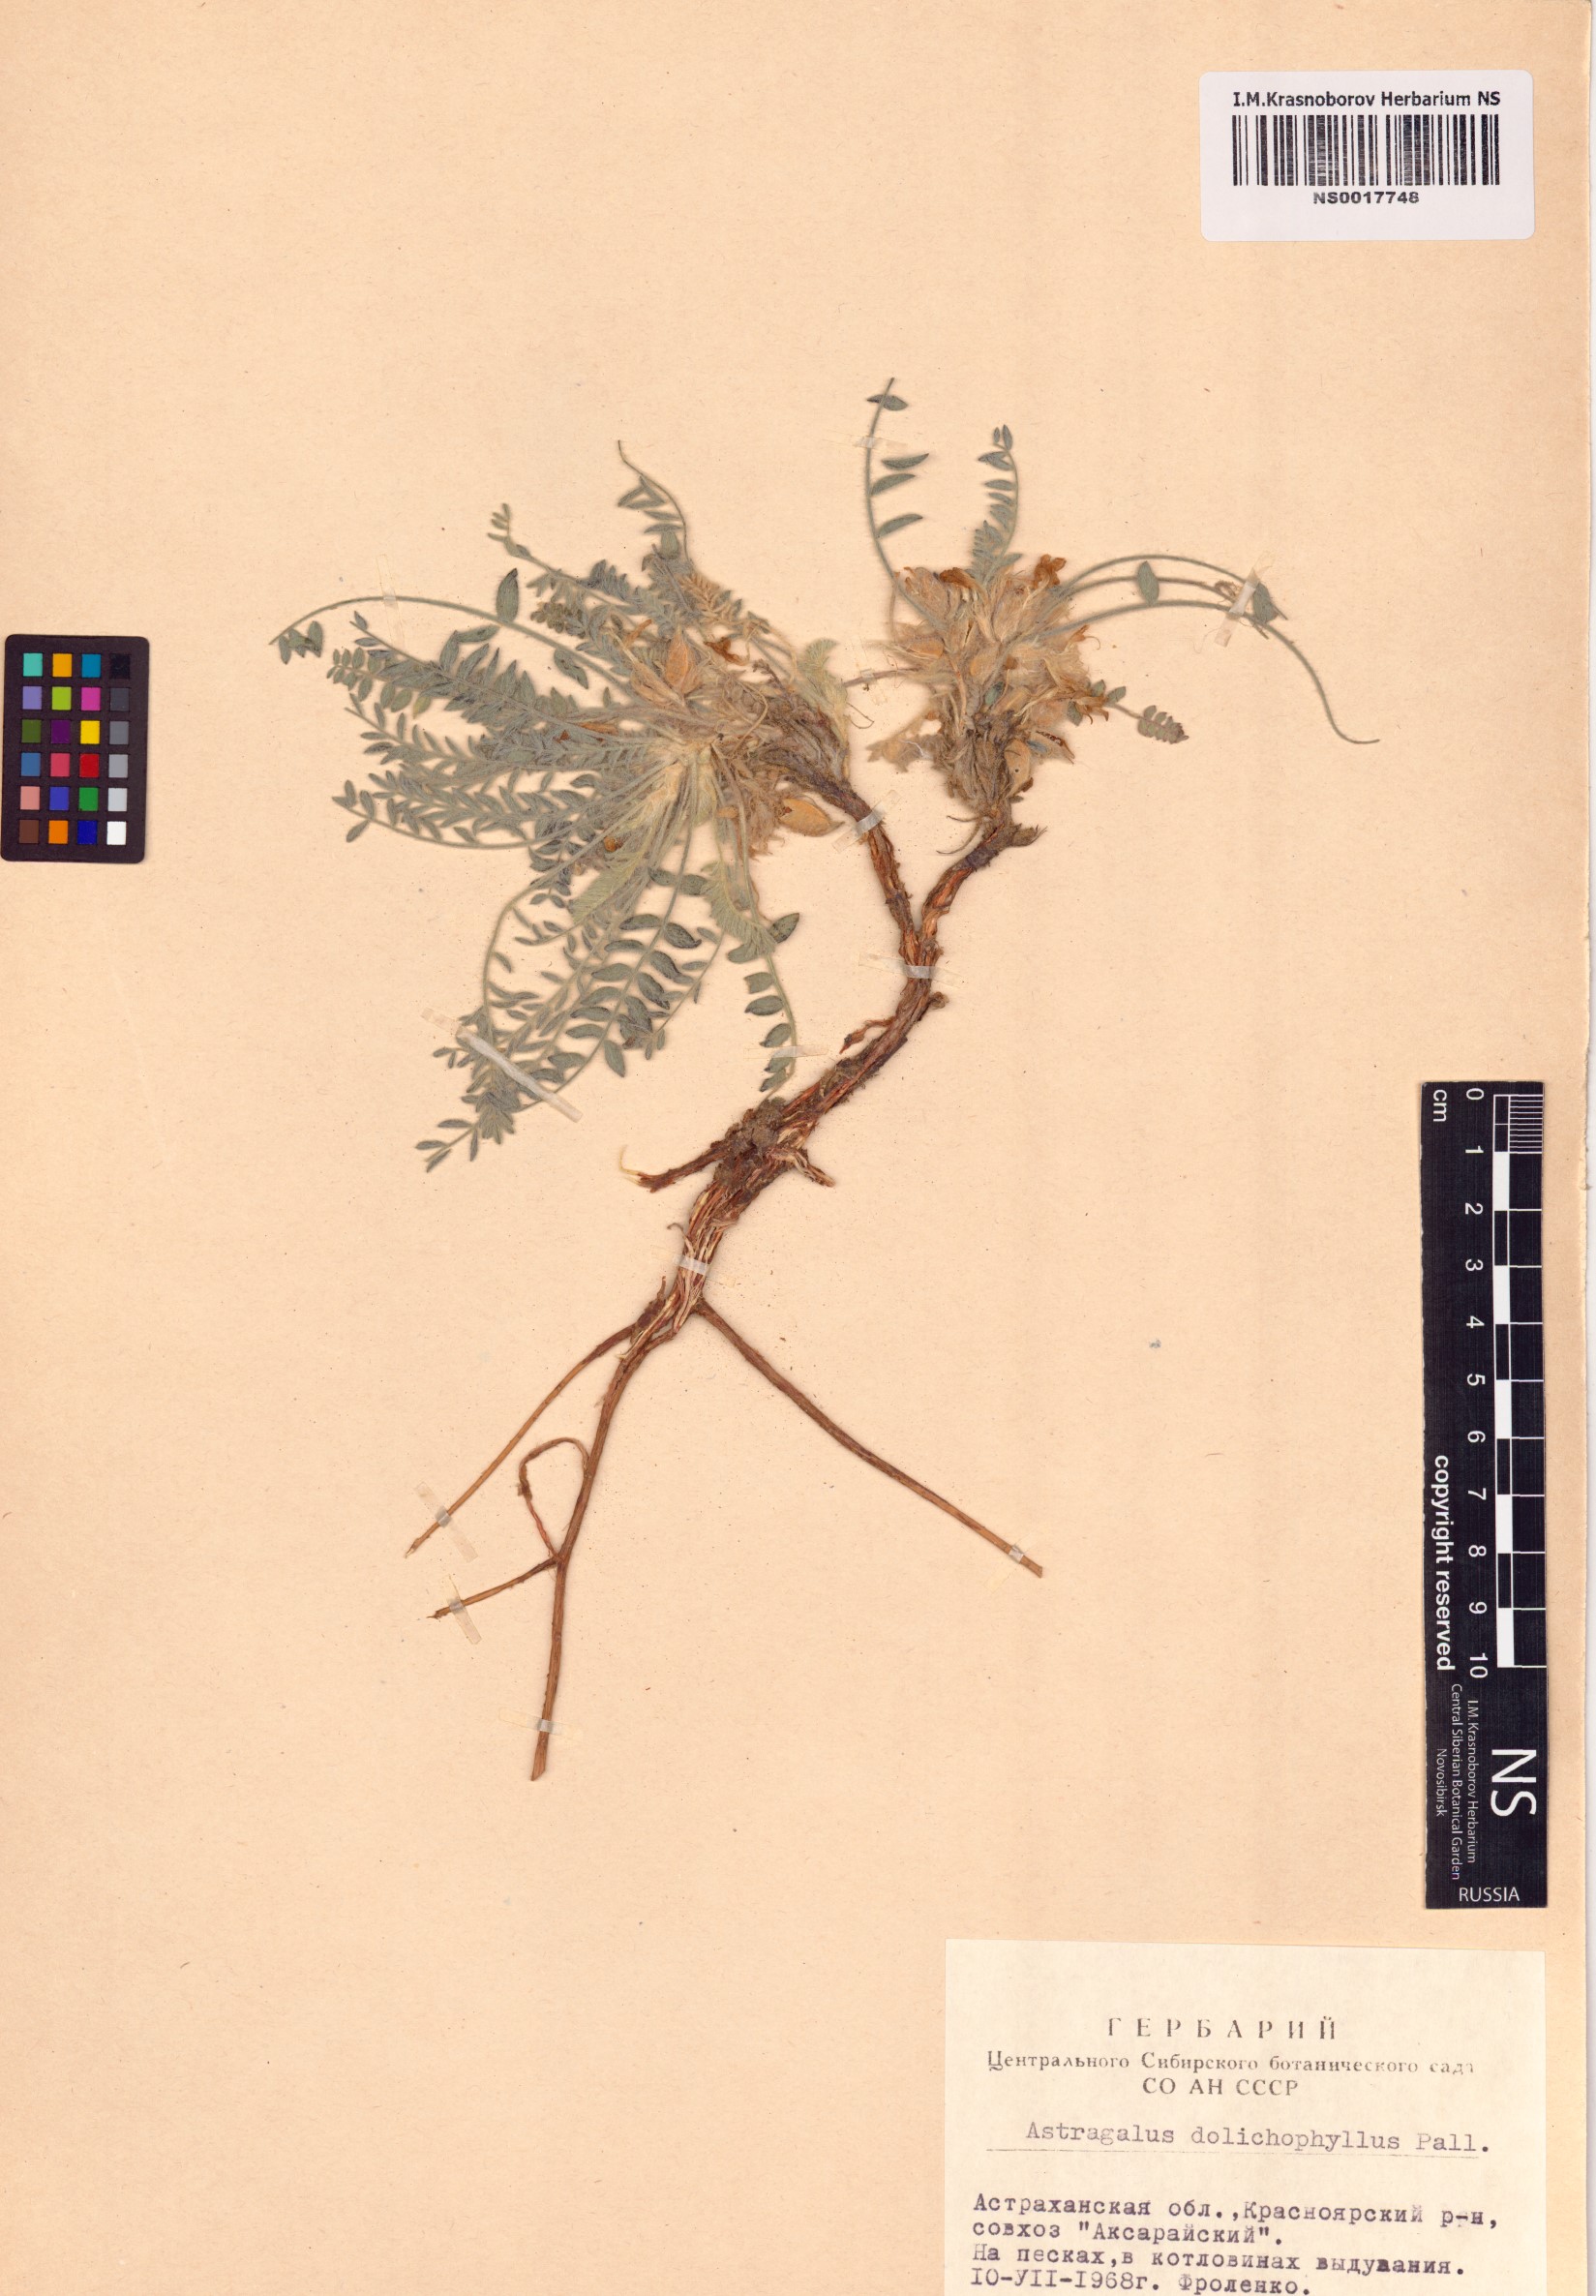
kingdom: Plantae
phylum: Tracheophyta
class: Magnoliopsida
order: Fabales
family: Fabaceae
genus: Astragalus
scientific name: Astragalus dolichophyllus
